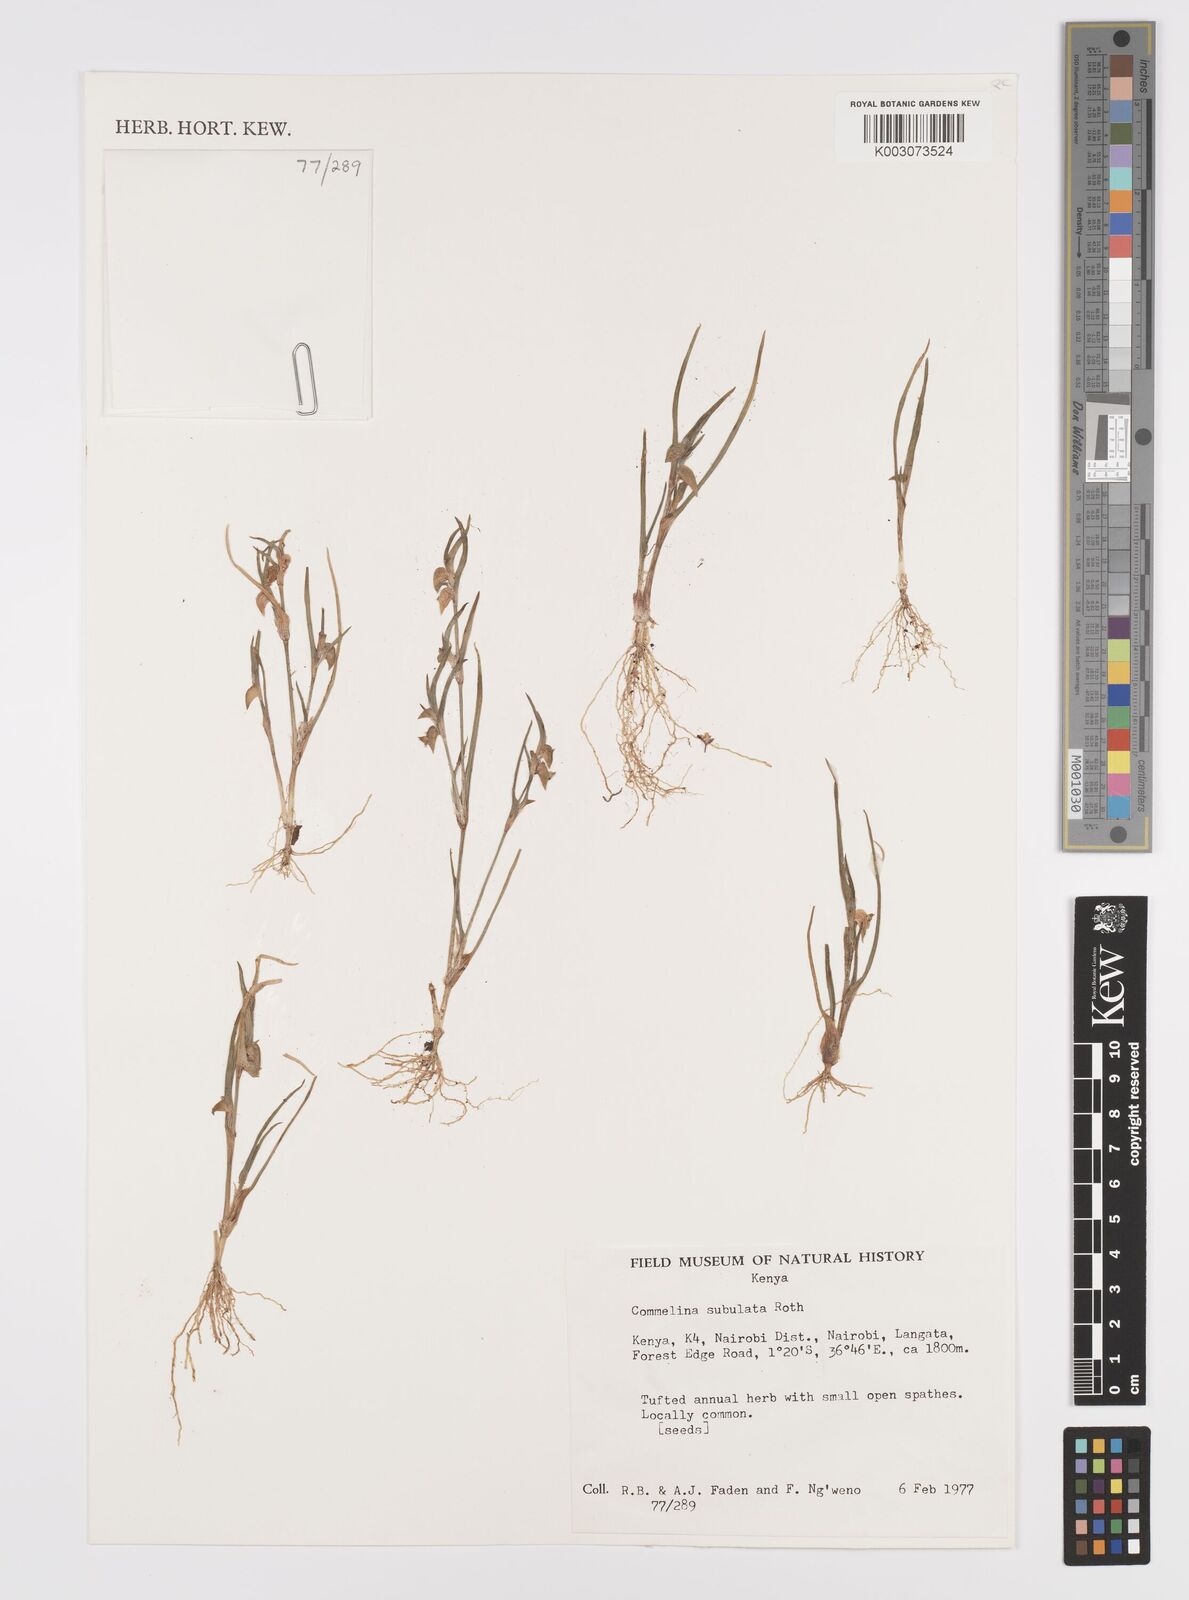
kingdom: Plantae
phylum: Tracheophyta
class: Liliopsida
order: Commelinales
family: Commelinaceae
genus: Commelina
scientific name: Commelina subulata
